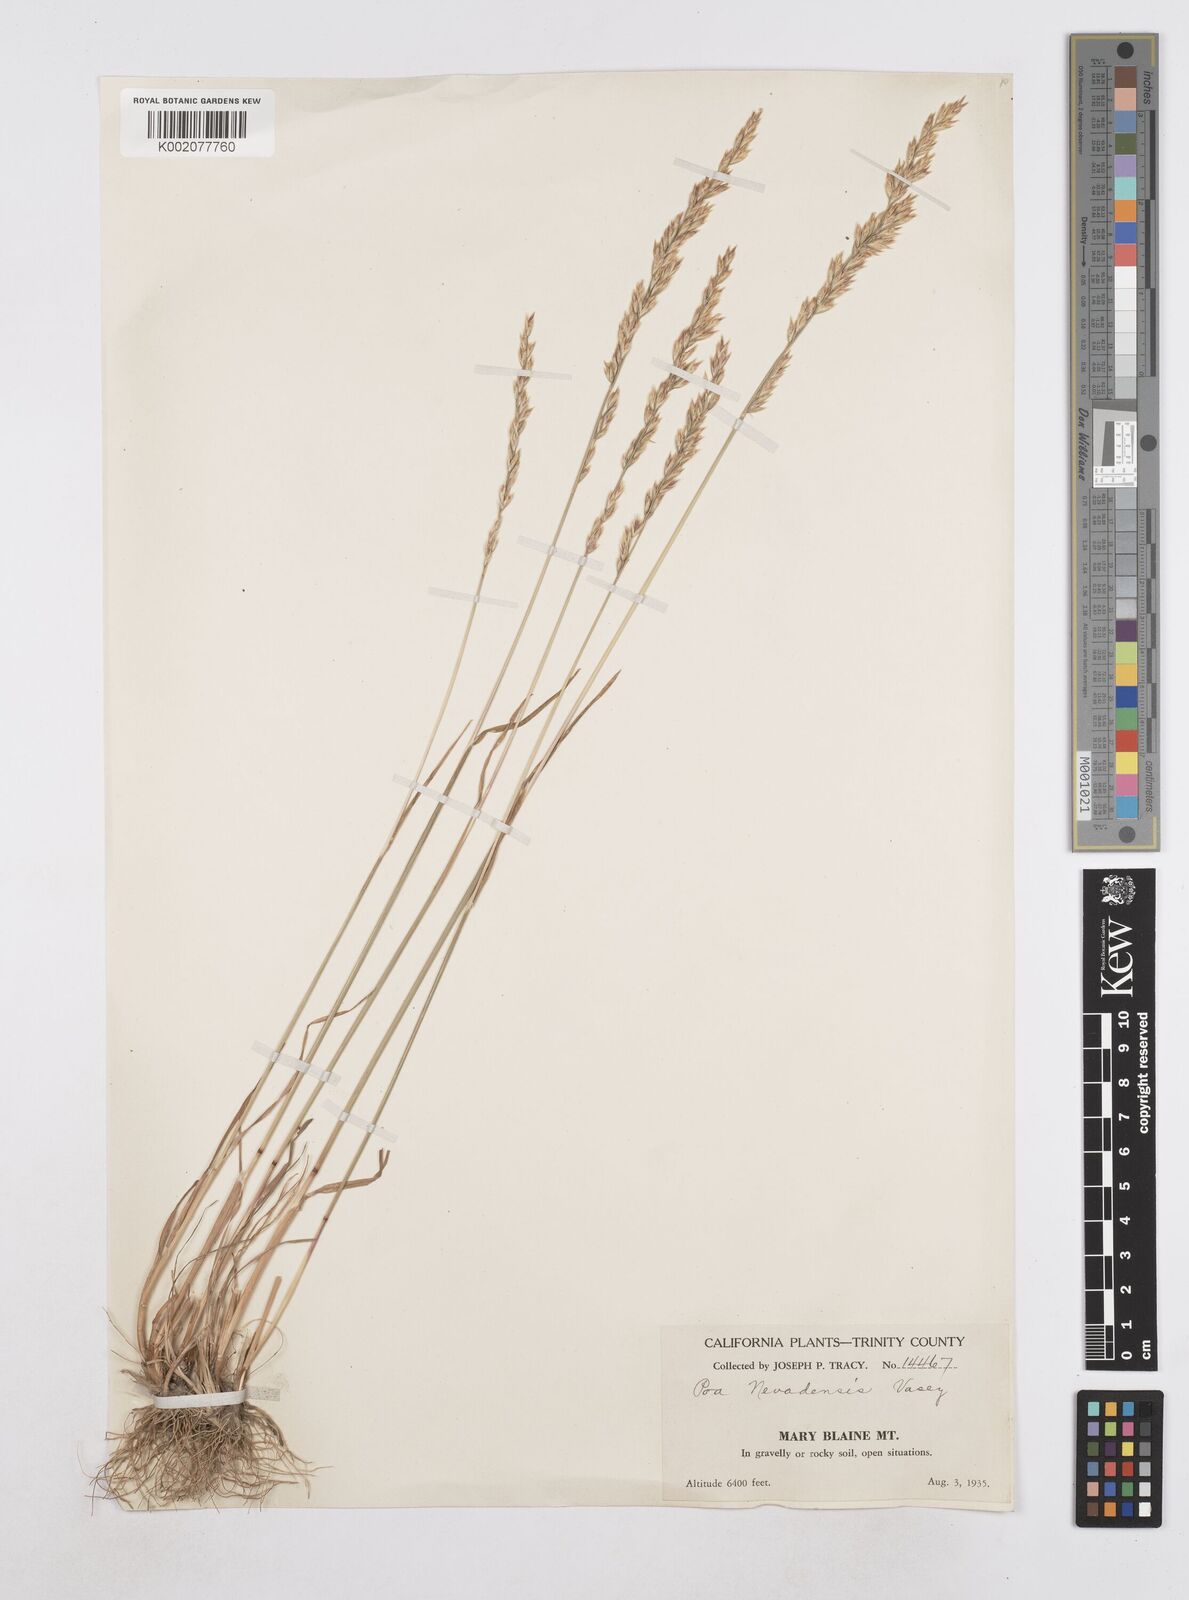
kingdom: Plantae
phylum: Tracheophyta
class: Liliopsida
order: Poales
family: Poaceae
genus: Poa
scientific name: Poa secunda
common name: Sandberg bluegrass
